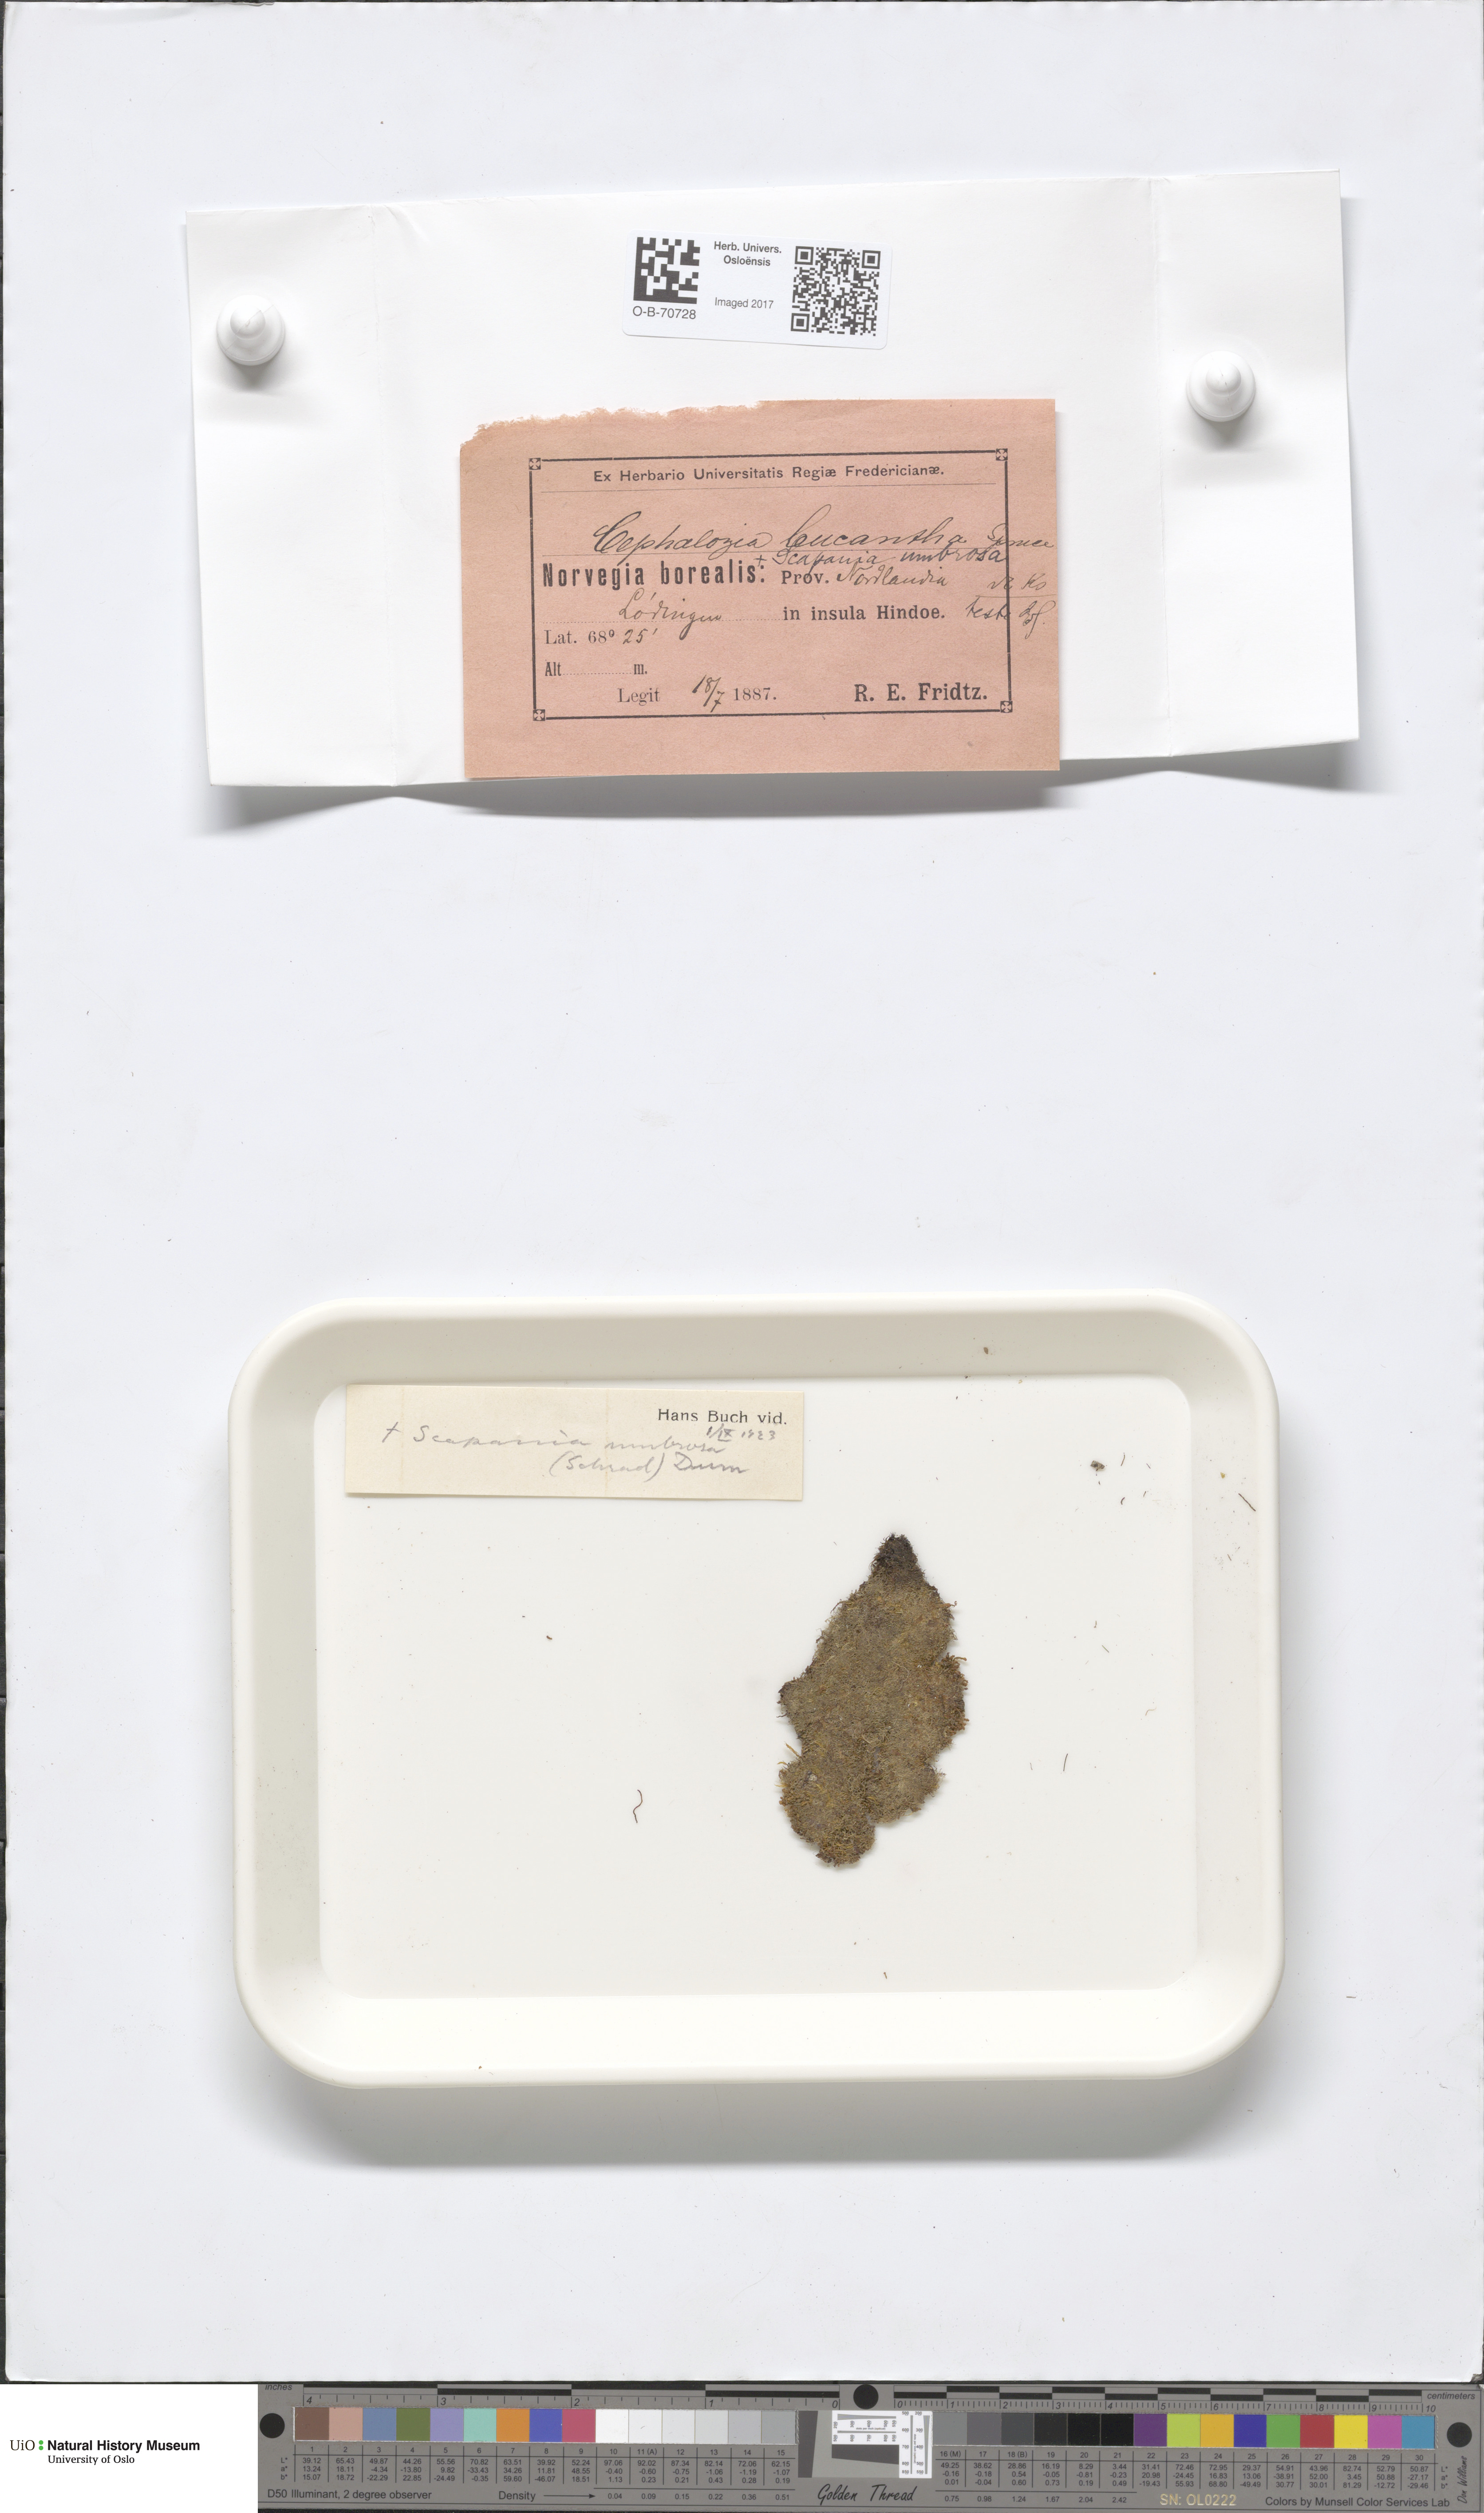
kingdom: Plantae
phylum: Marchantiophyta
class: Jungermanniopsida
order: Jungermanniales
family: Cephaloziaceae
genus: Fuscocephaloziopsis
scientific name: Fuscocephaloziopsis leucantha
